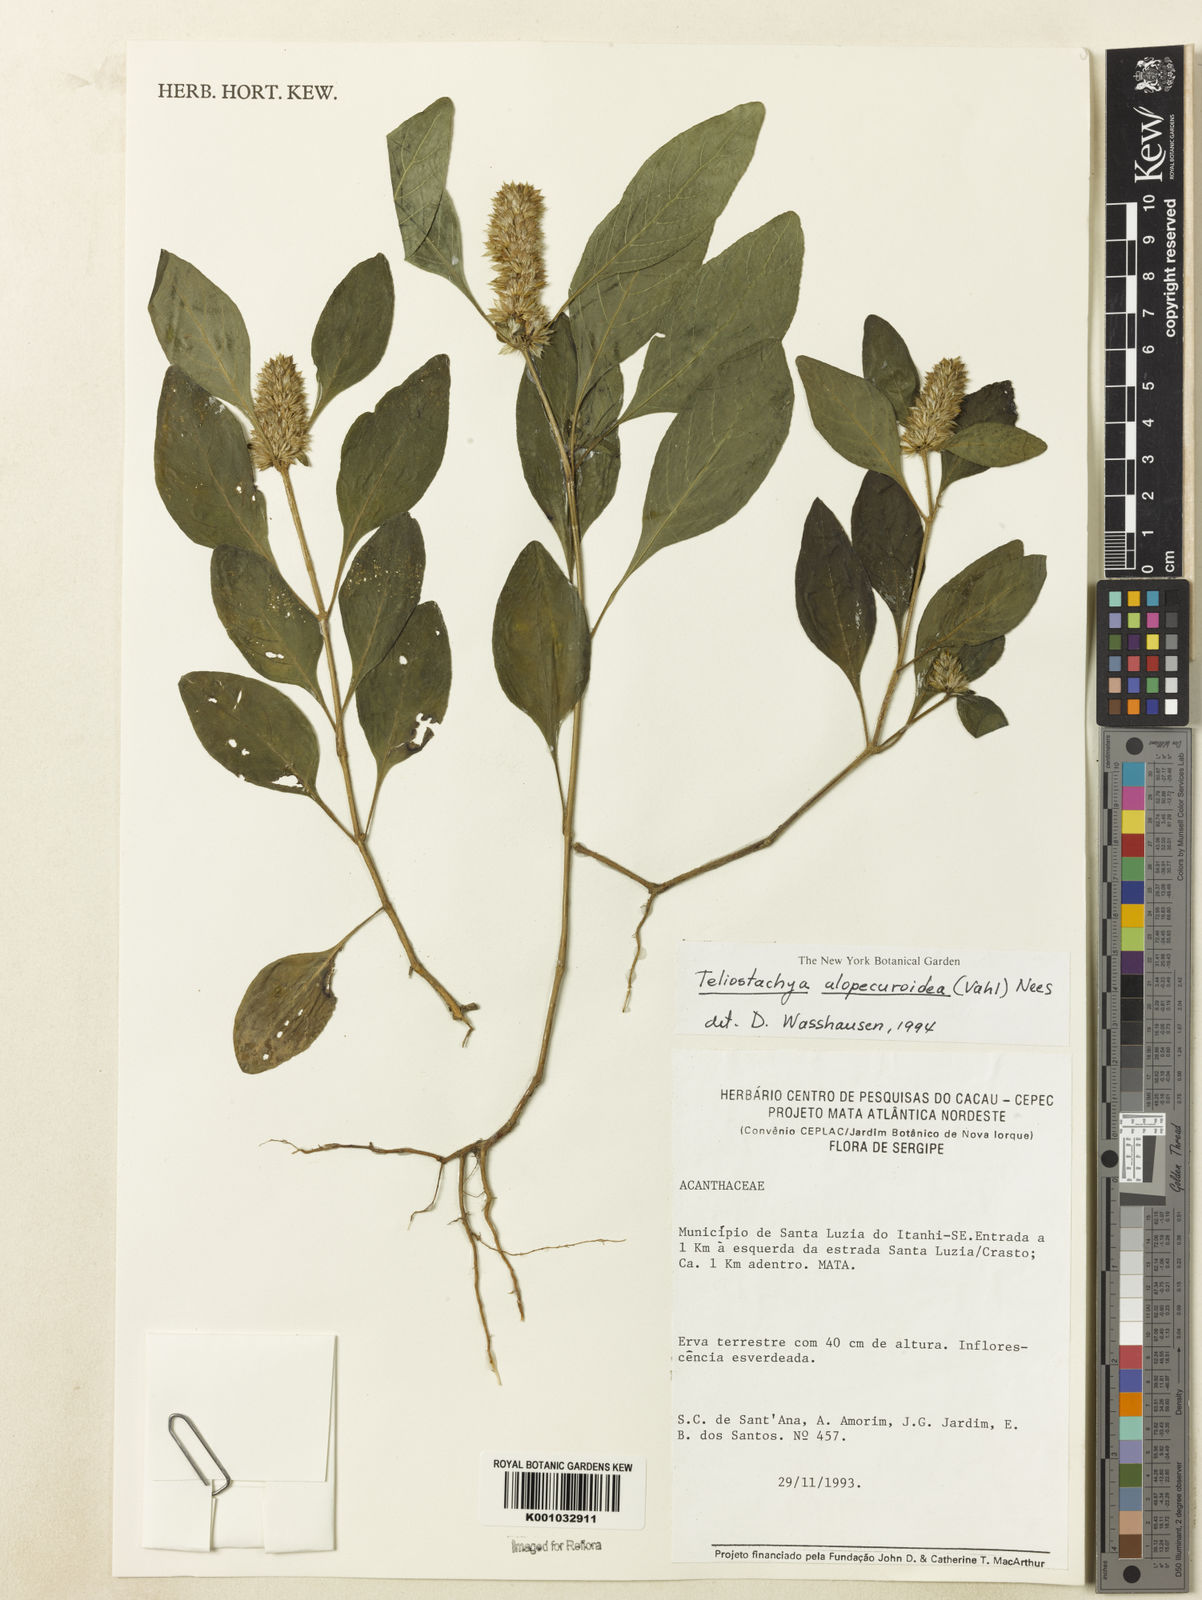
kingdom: Plantae
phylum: Tracheophyta
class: Magnoliopsida
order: Lamiales
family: Acanthaceae
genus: Lepidagathis
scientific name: Lepidagathis alopecuroidea
